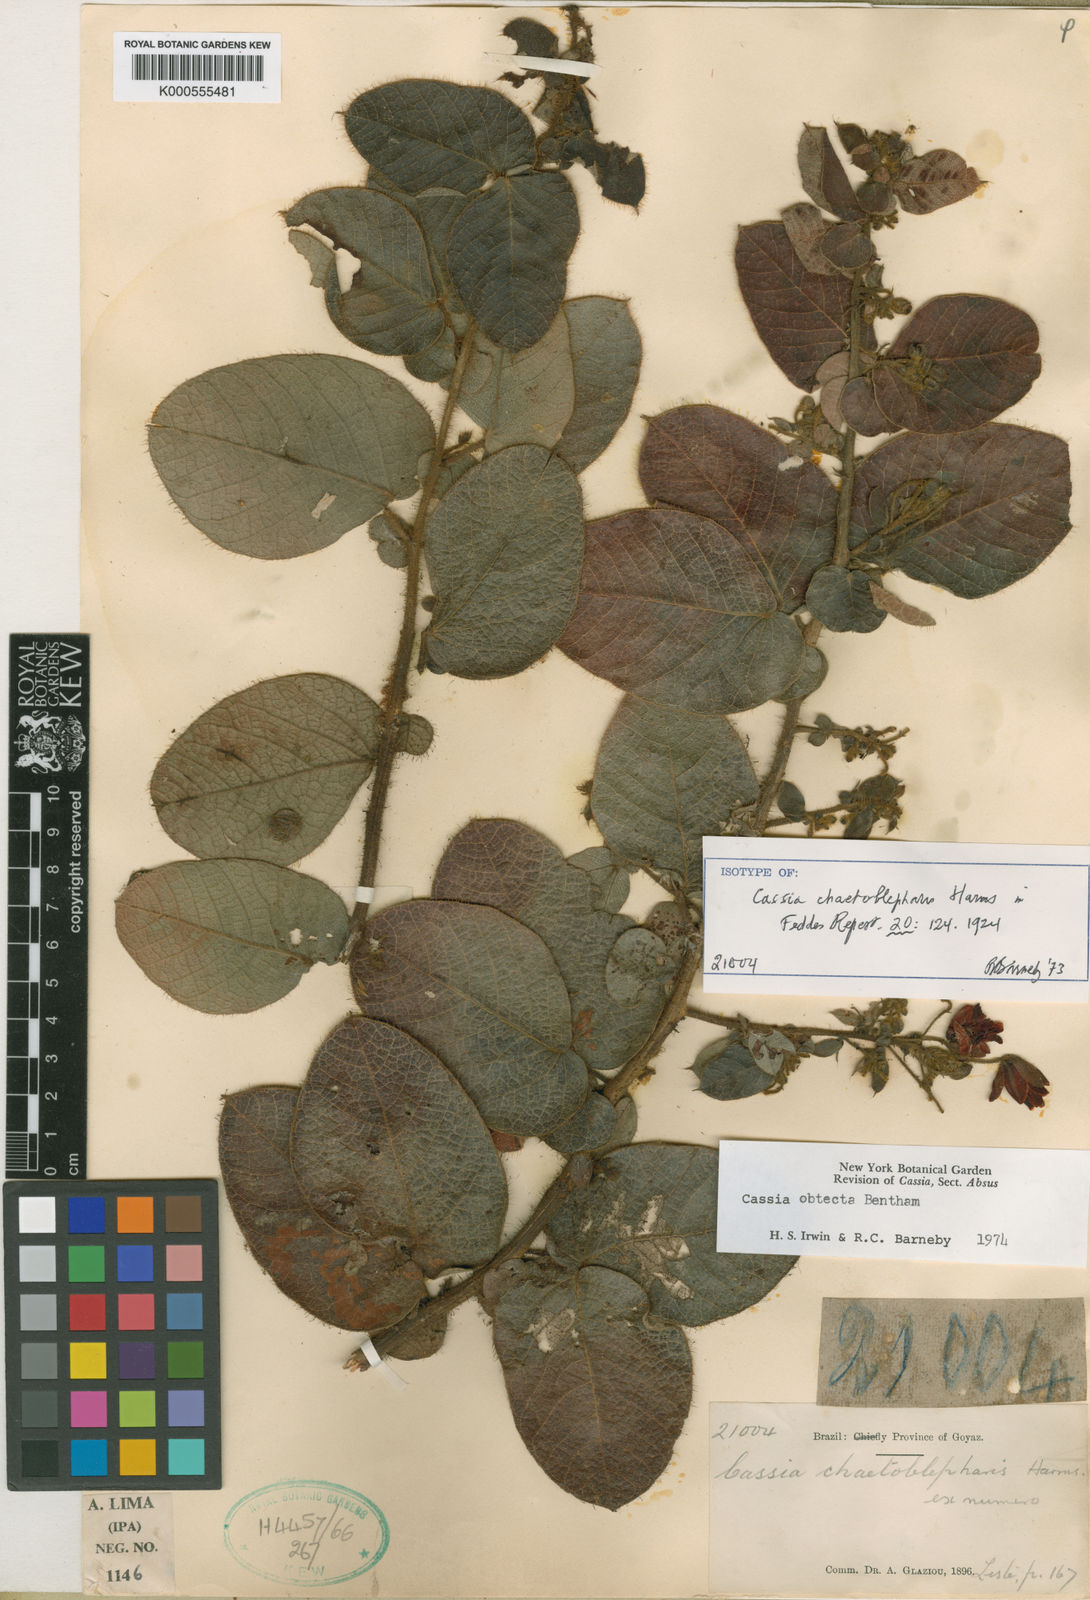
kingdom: Plantae
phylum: Tracheophyta
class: Magnoliopsida
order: Fabales
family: Fabaceae
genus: Chamaecrista
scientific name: Chamaecrista obtecta
